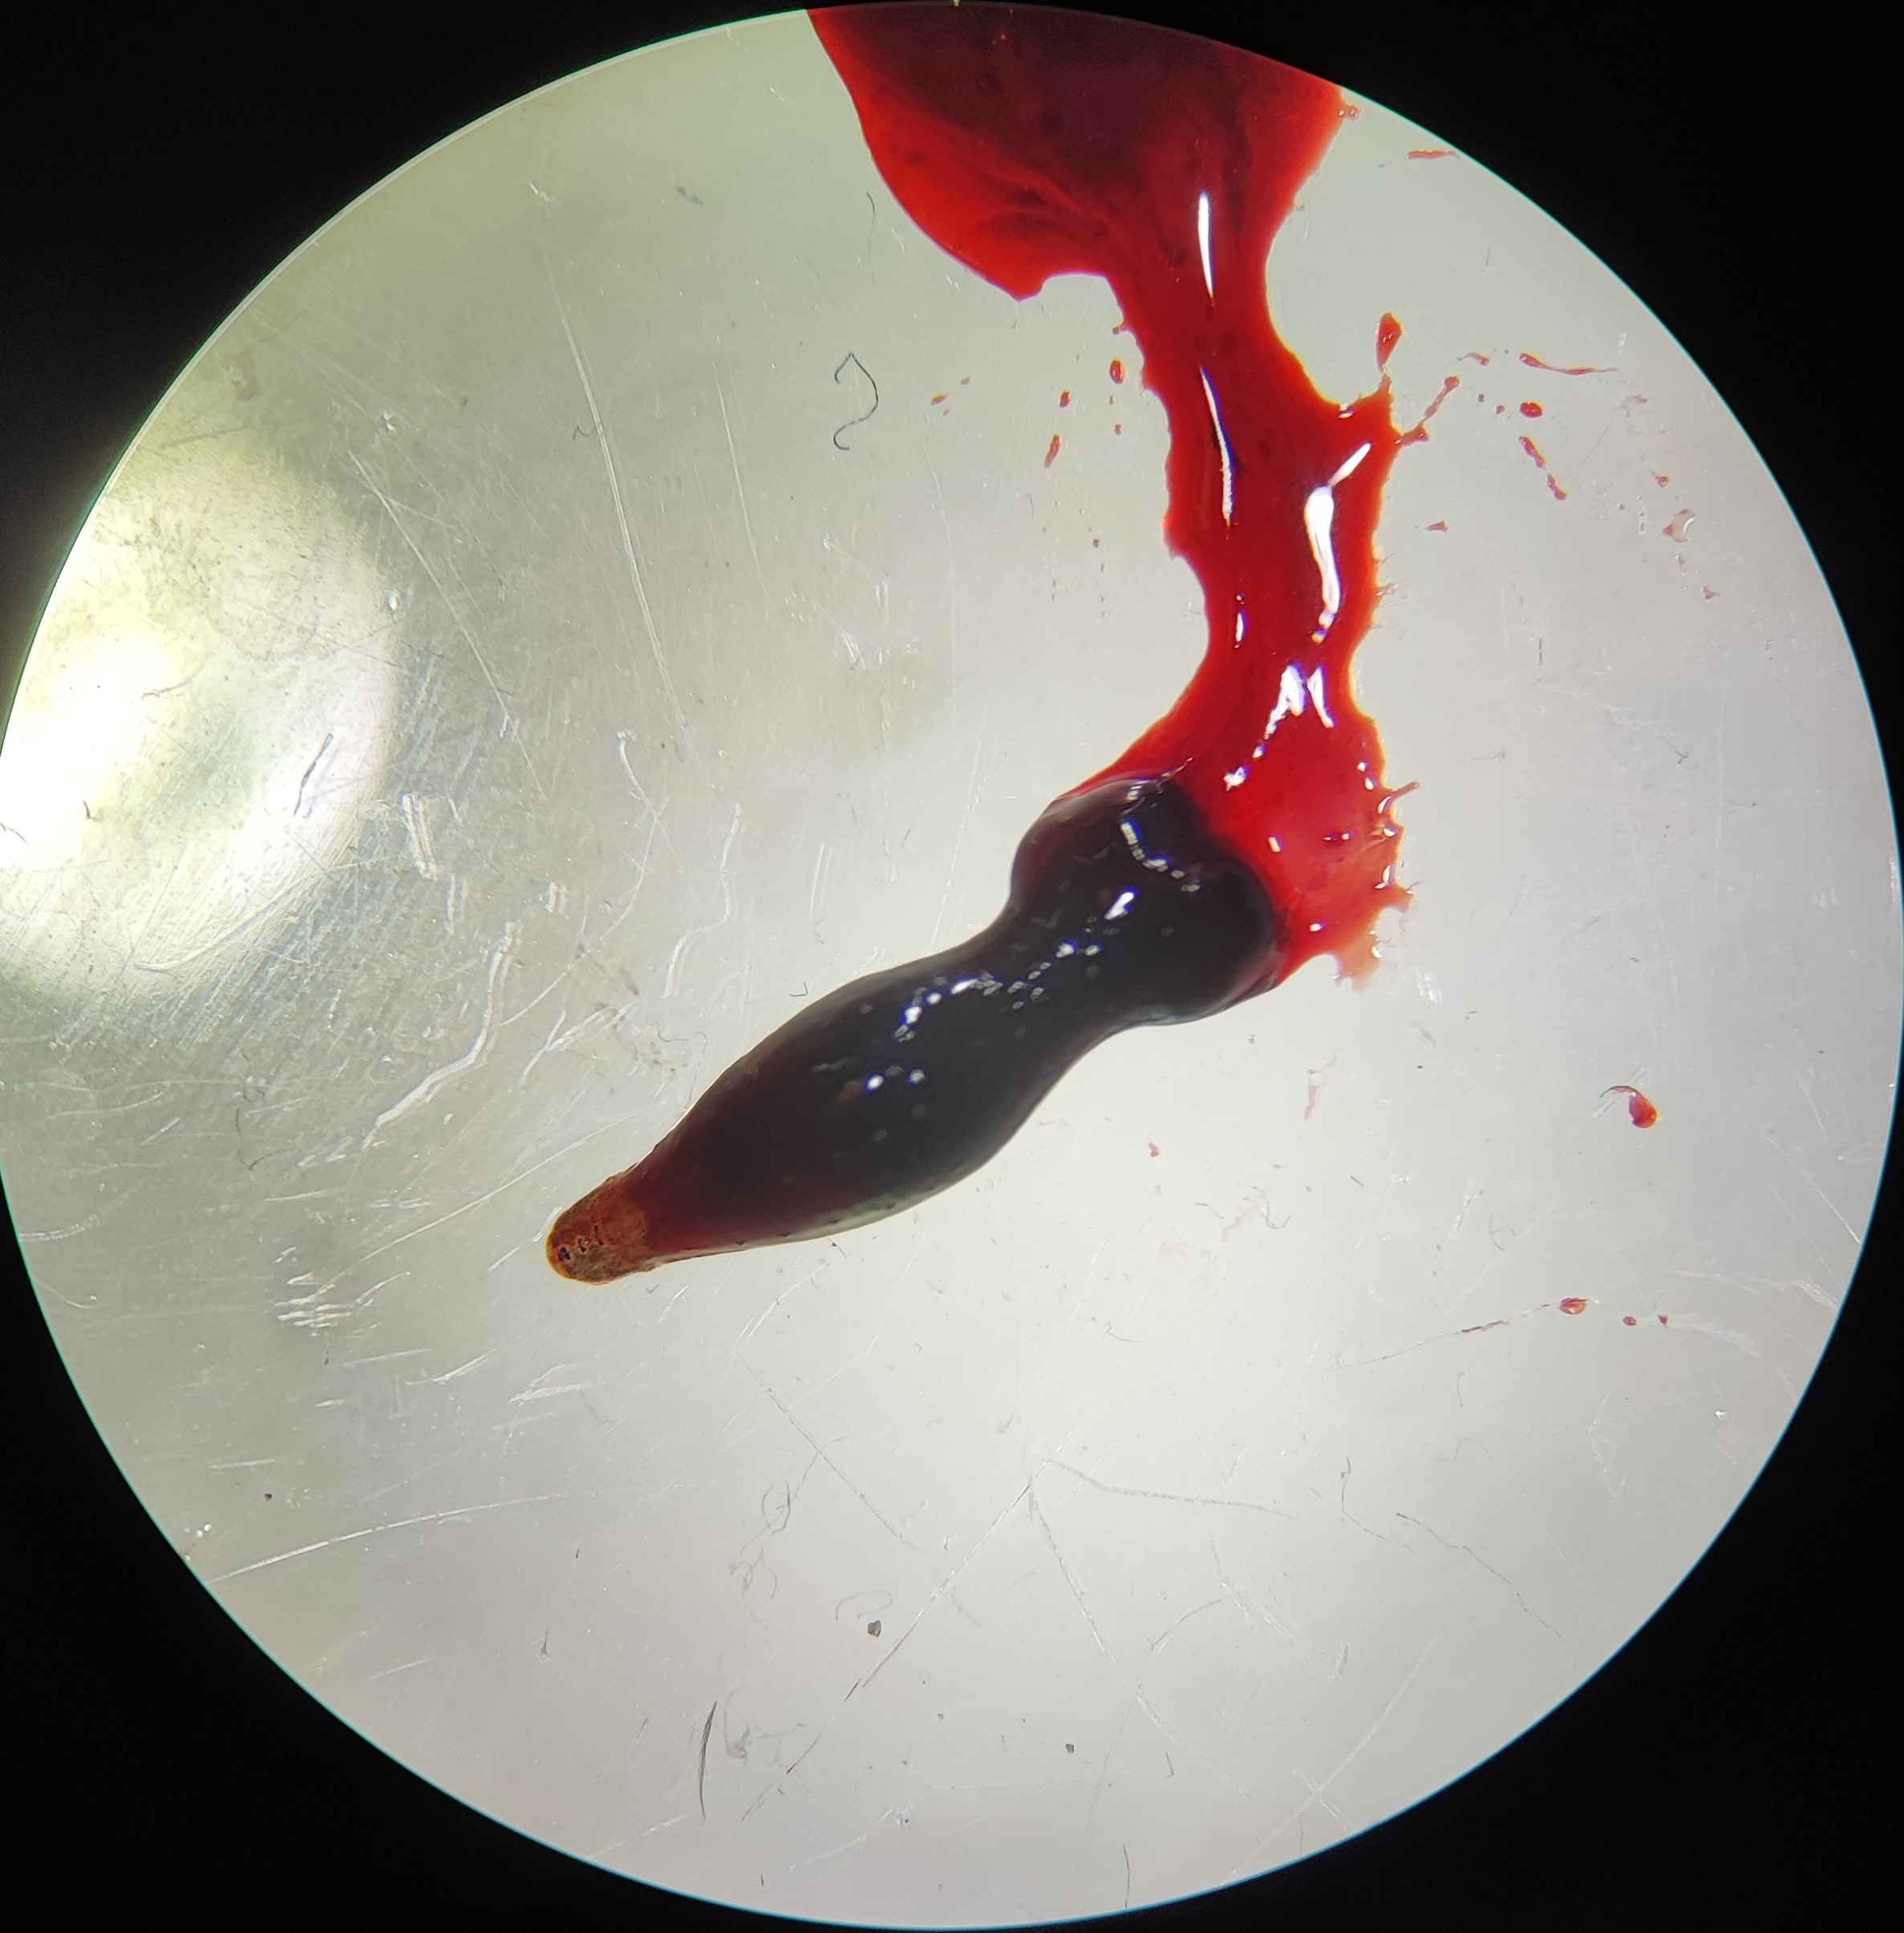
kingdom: Animalia
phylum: Annelida
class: Clitellata
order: Rhynchobdellida
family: Glossiphoniidae
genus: Theromyzon
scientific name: Theromyzon tessulatum
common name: Andeigle
